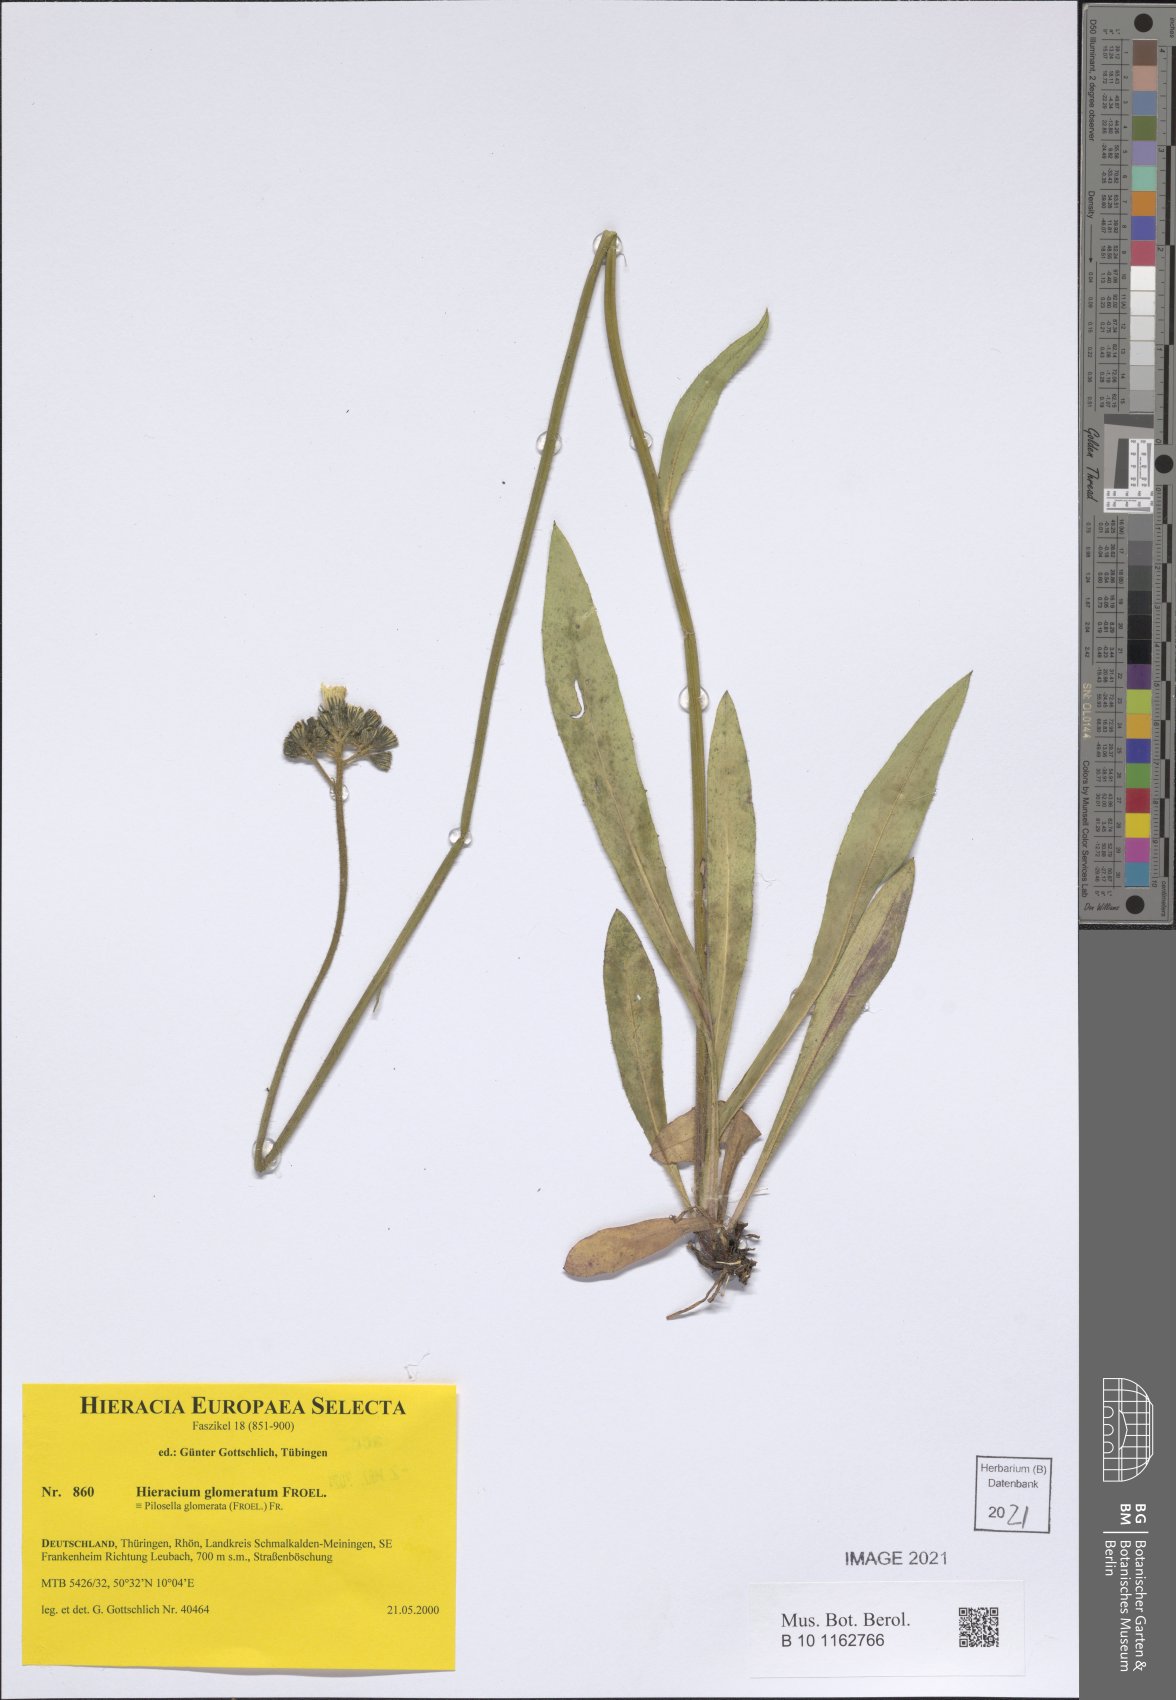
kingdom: Plantae
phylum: Tracheophyta
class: Magnoliopsida
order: Asterales
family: Asteraceae
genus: Pilosella
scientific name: Pilosella glomerata
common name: Queen devil hawkweed
